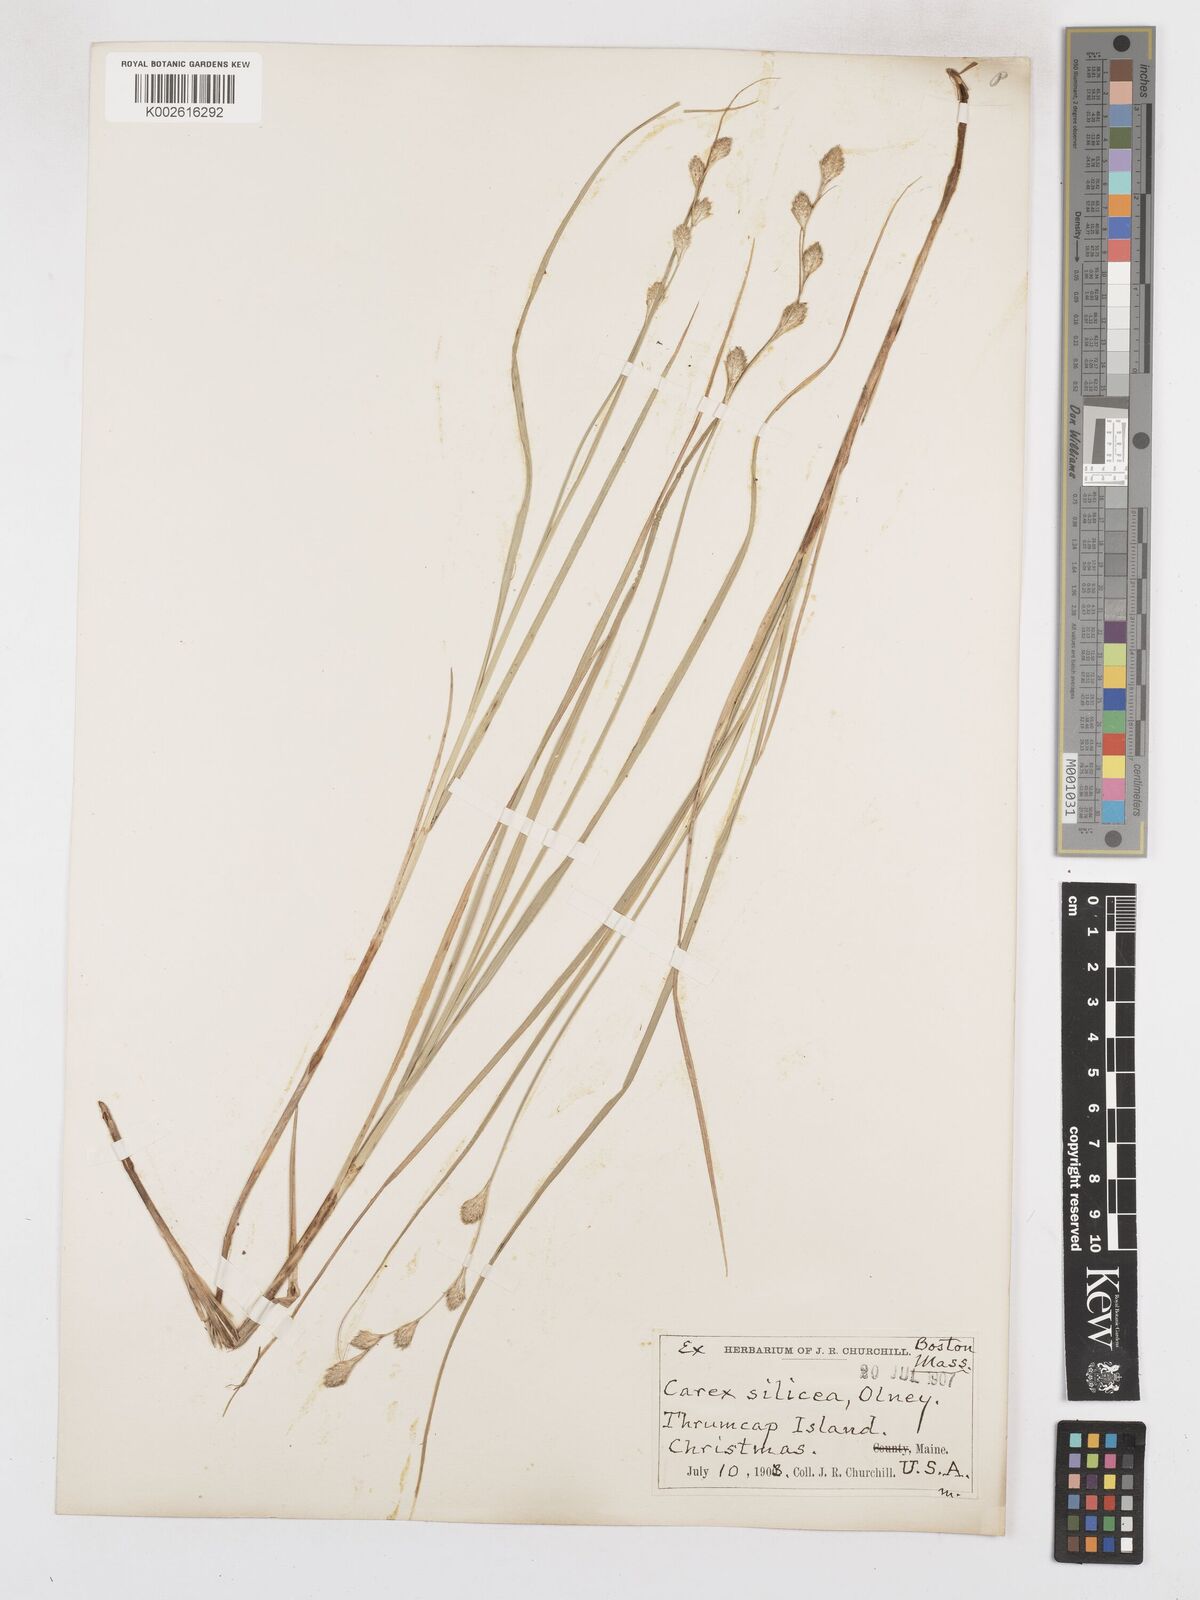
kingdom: Plantae
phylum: Tracheophyta
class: Liliopsida
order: Poales
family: Cyperaceae
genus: Carex
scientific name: Carex silicea
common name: Beach sedge
